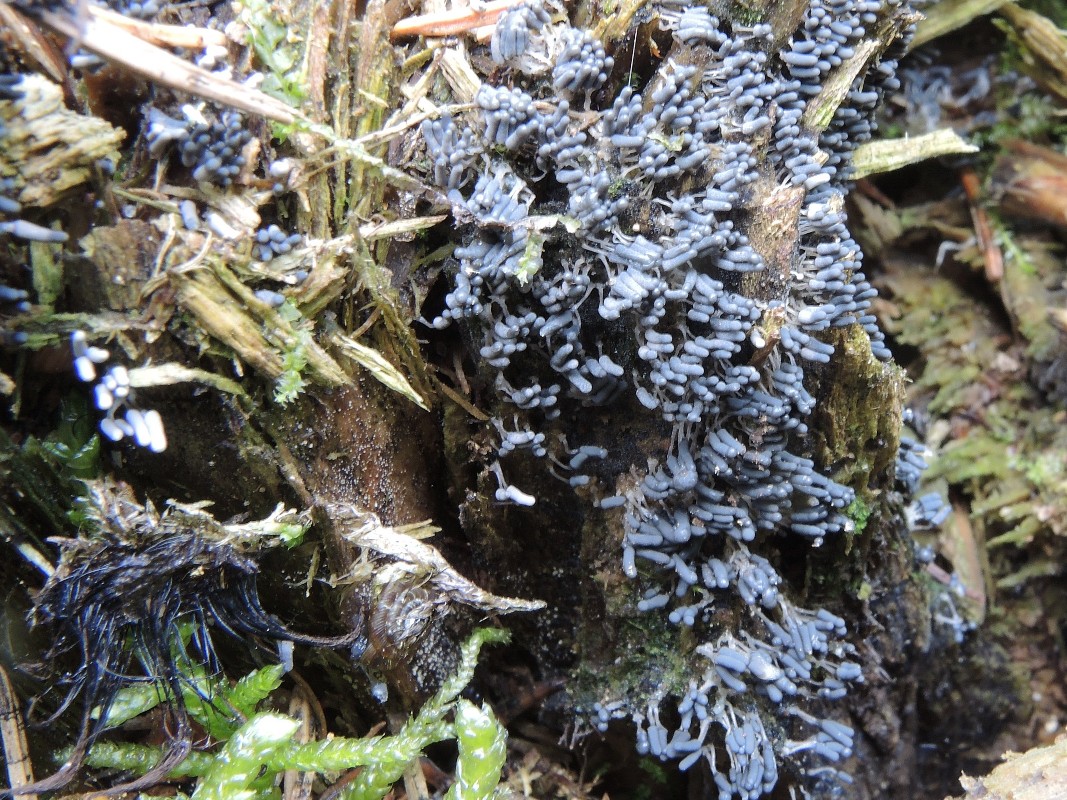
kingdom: Protozoa
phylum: Mycetozoa
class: Myxomycetes
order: Trichiales
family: Arcyriaceae
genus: Arcyria
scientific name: Arcyria cinerea
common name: White carnival candy slime mold
